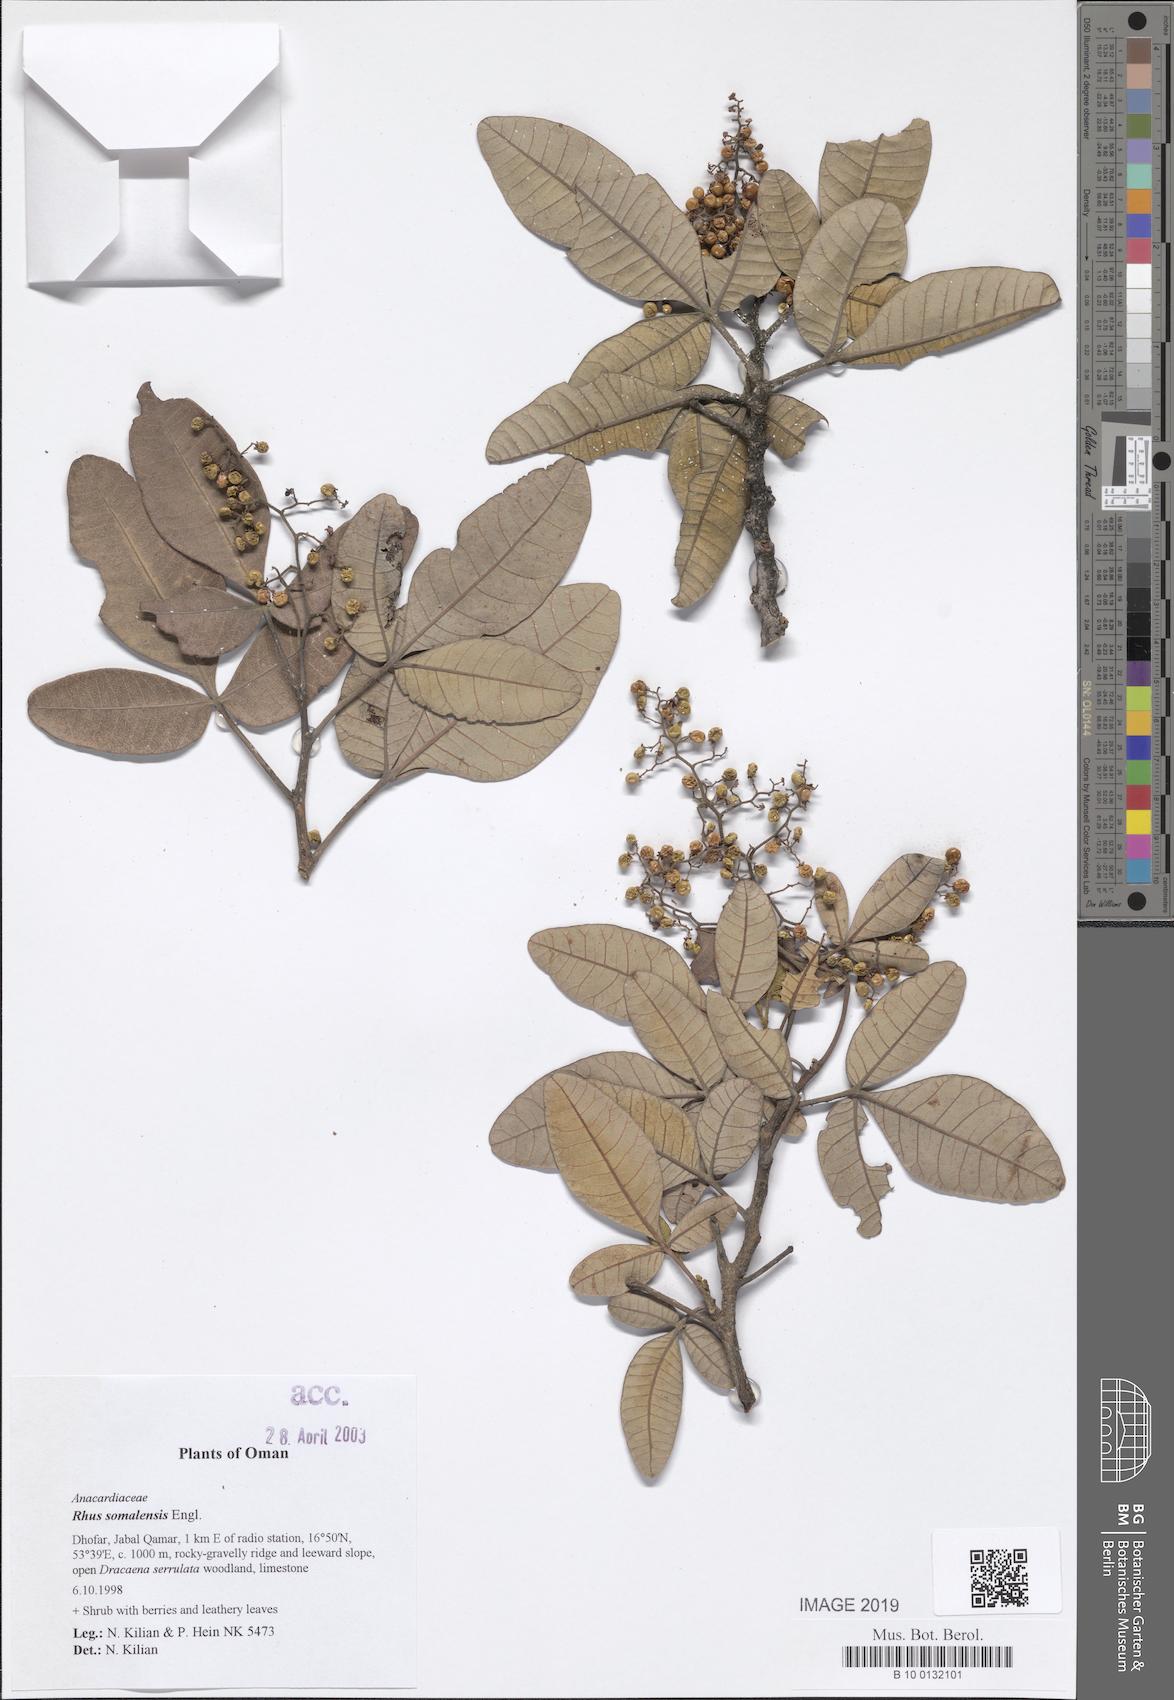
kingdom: Plantae
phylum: Tracheophyta
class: Magnoliopsida
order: Sapindales
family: Anacardiaceae
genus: Searsia
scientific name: Searsia somalensis
